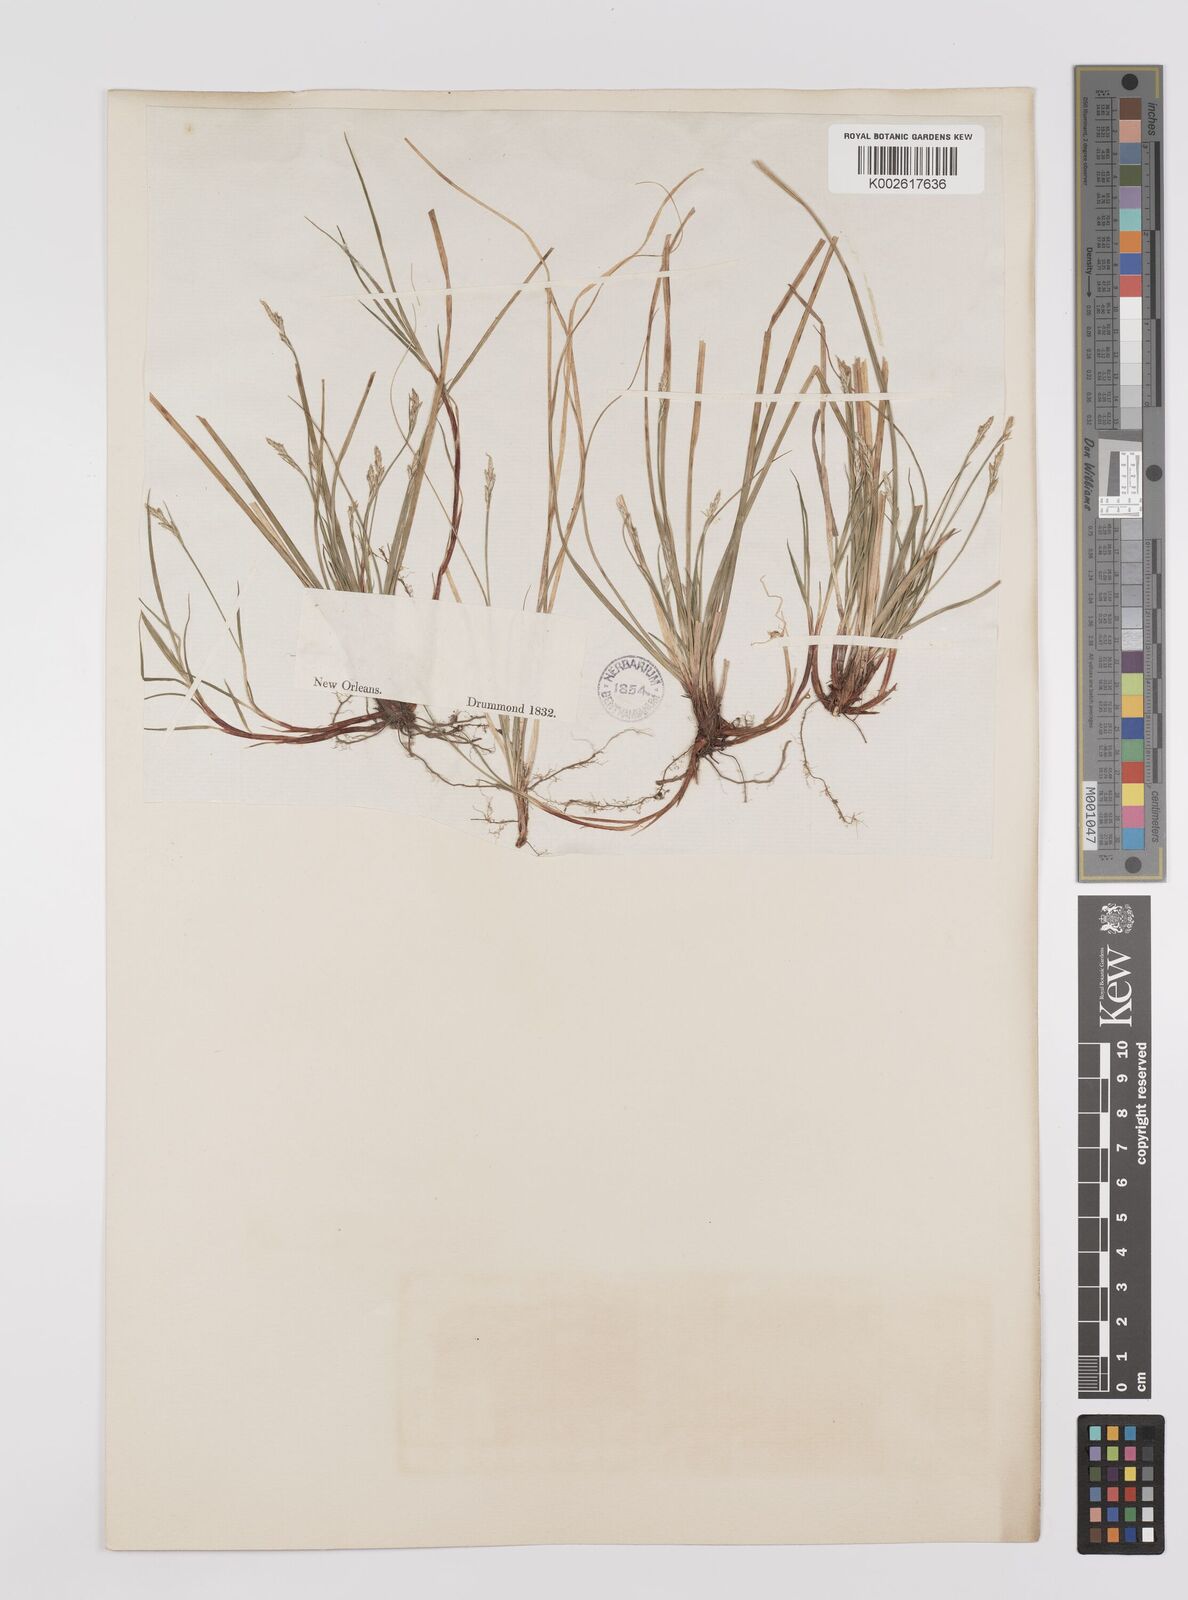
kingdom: Plantae
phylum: Tracheophyta
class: Liliopsida
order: Poales
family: Cyperaceae
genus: Carex
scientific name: Carex rossii
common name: Ross' sedge
